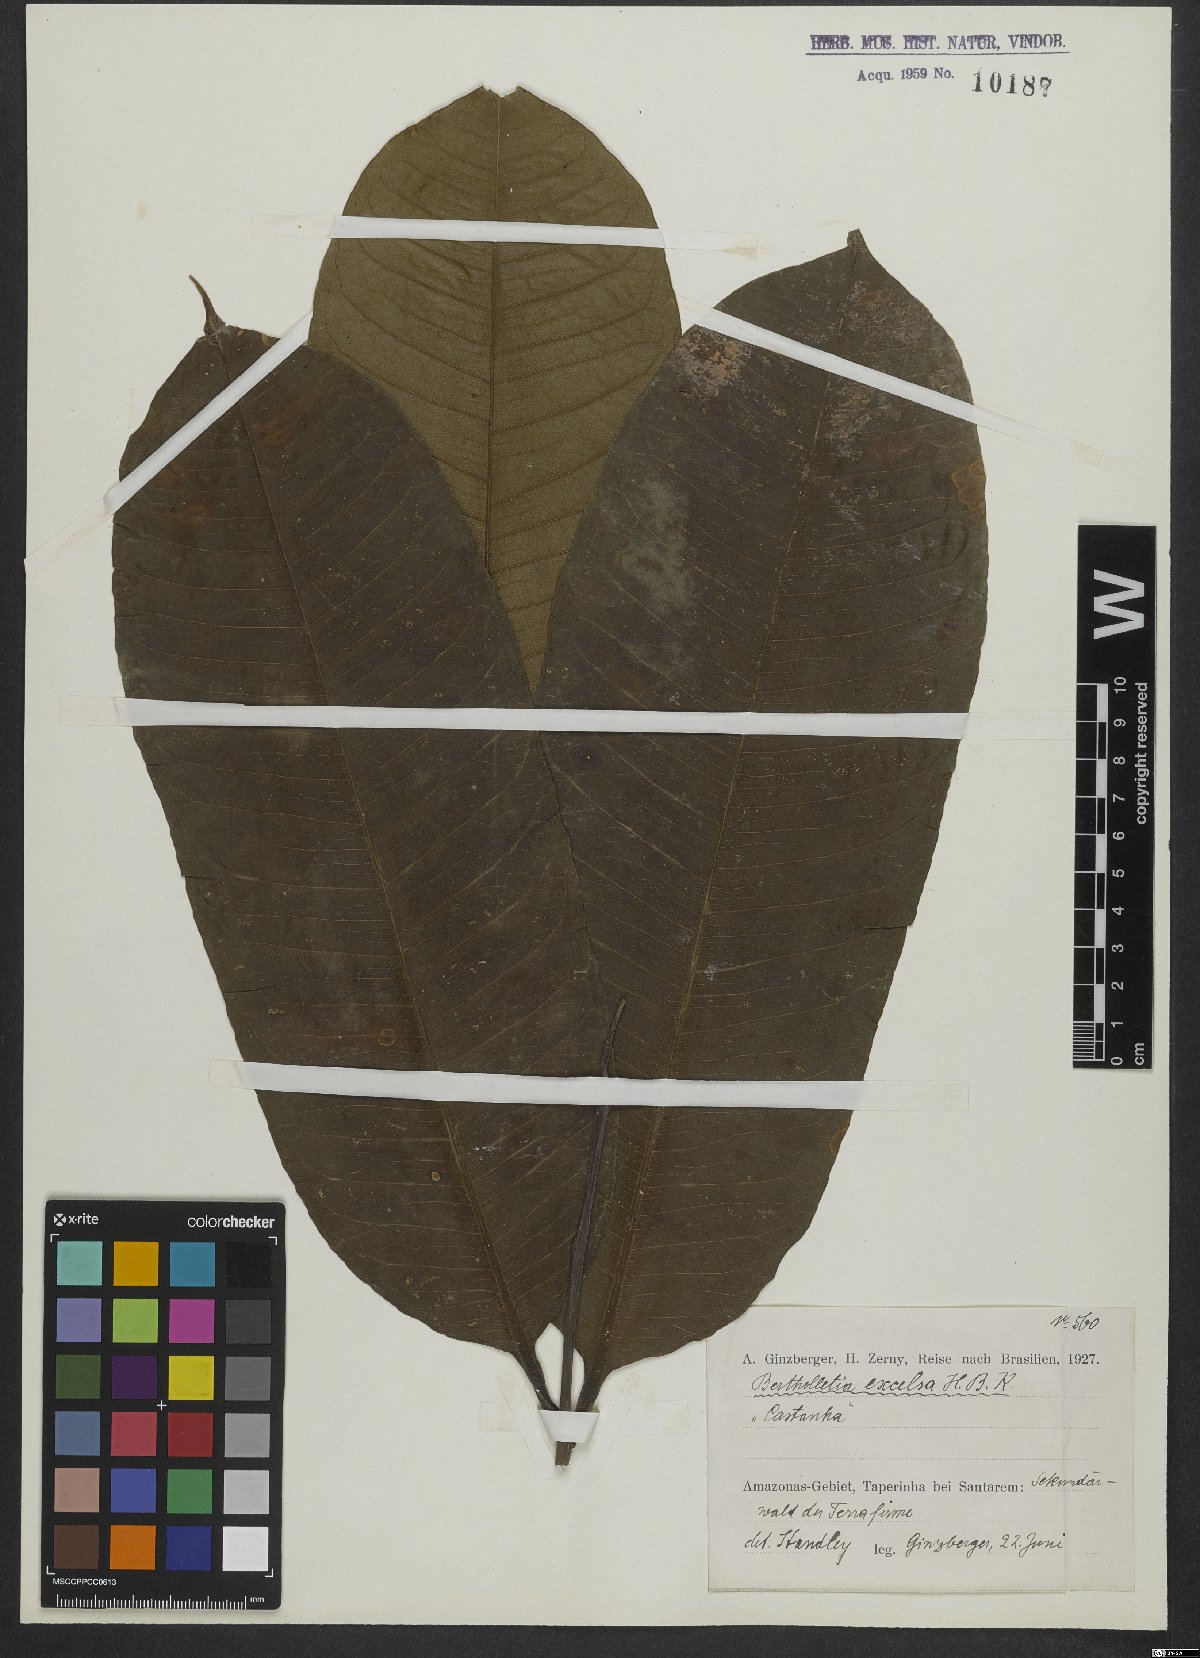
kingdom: Plantae
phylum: Tracheophyta
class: Magnoliopsida
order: Ericales
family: Lecythidaceae
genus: Bertholletia
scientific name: Bertholletia excelsa
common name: Brazil-nut tree
